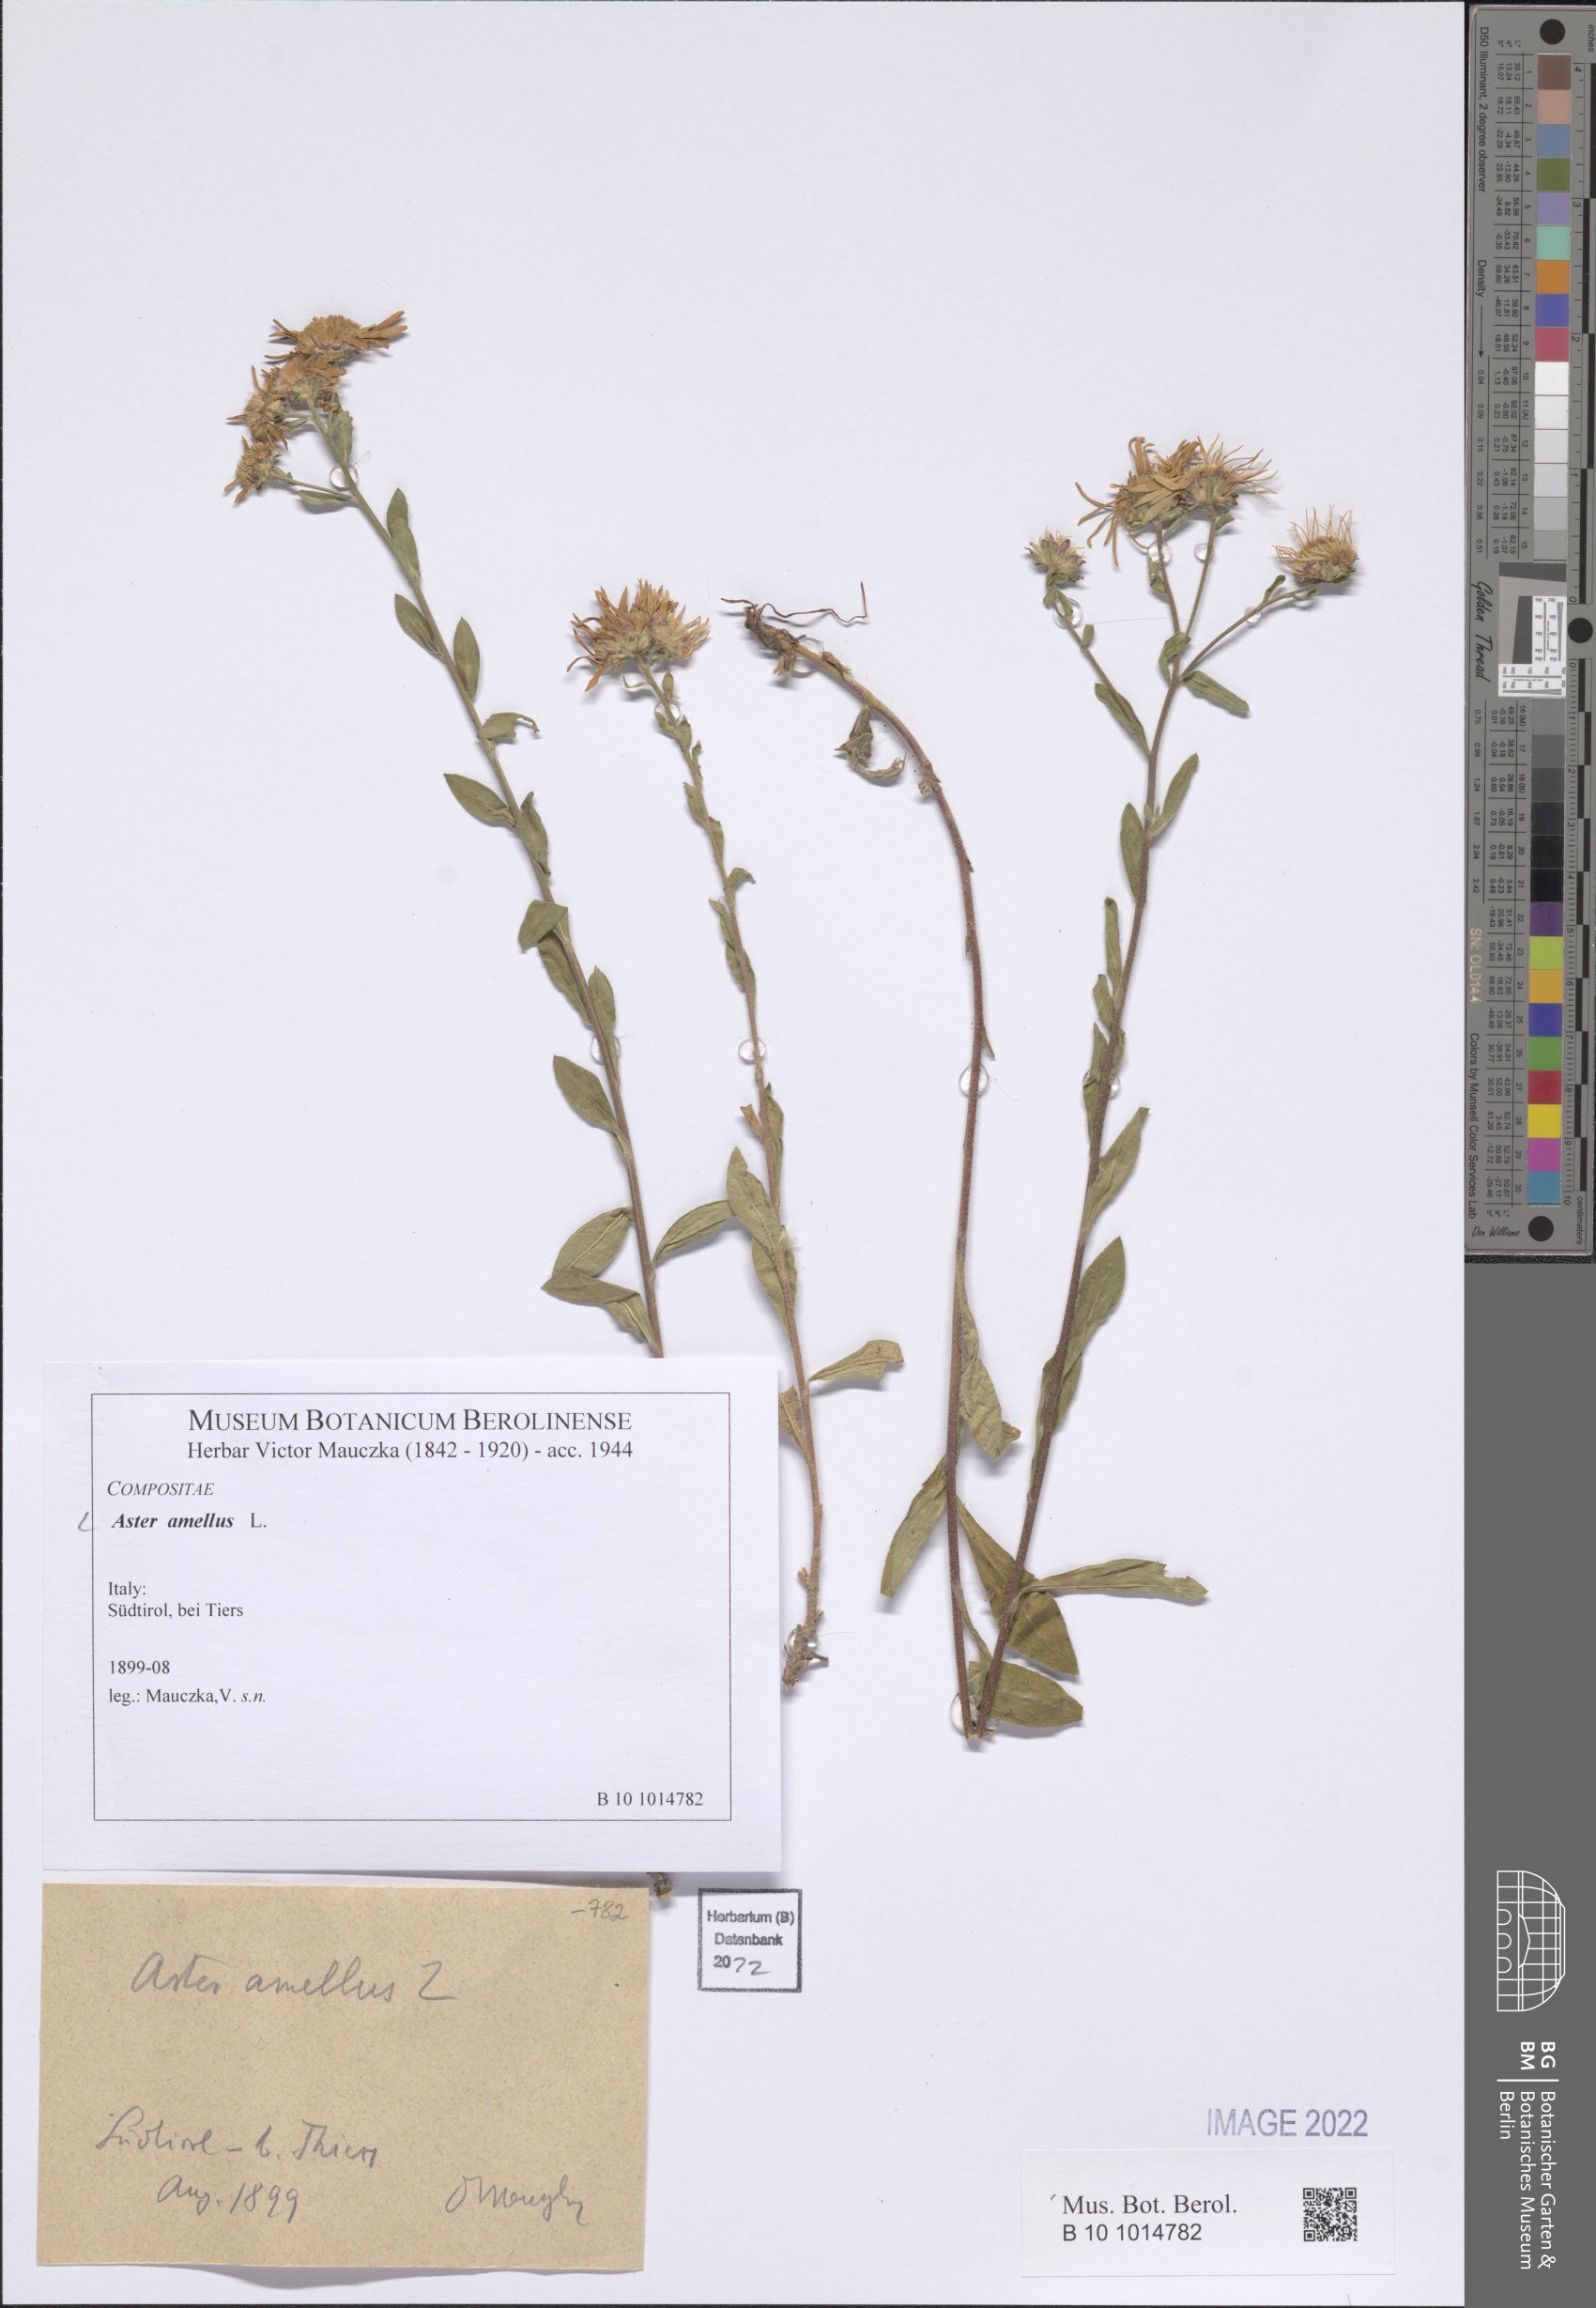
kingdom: Plantae
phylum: Tracheophyta
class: Magnoliopsida
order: Asterales
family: Asteraceae
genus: Aster
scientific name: Aster amellus
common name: European michaelmas daisy
